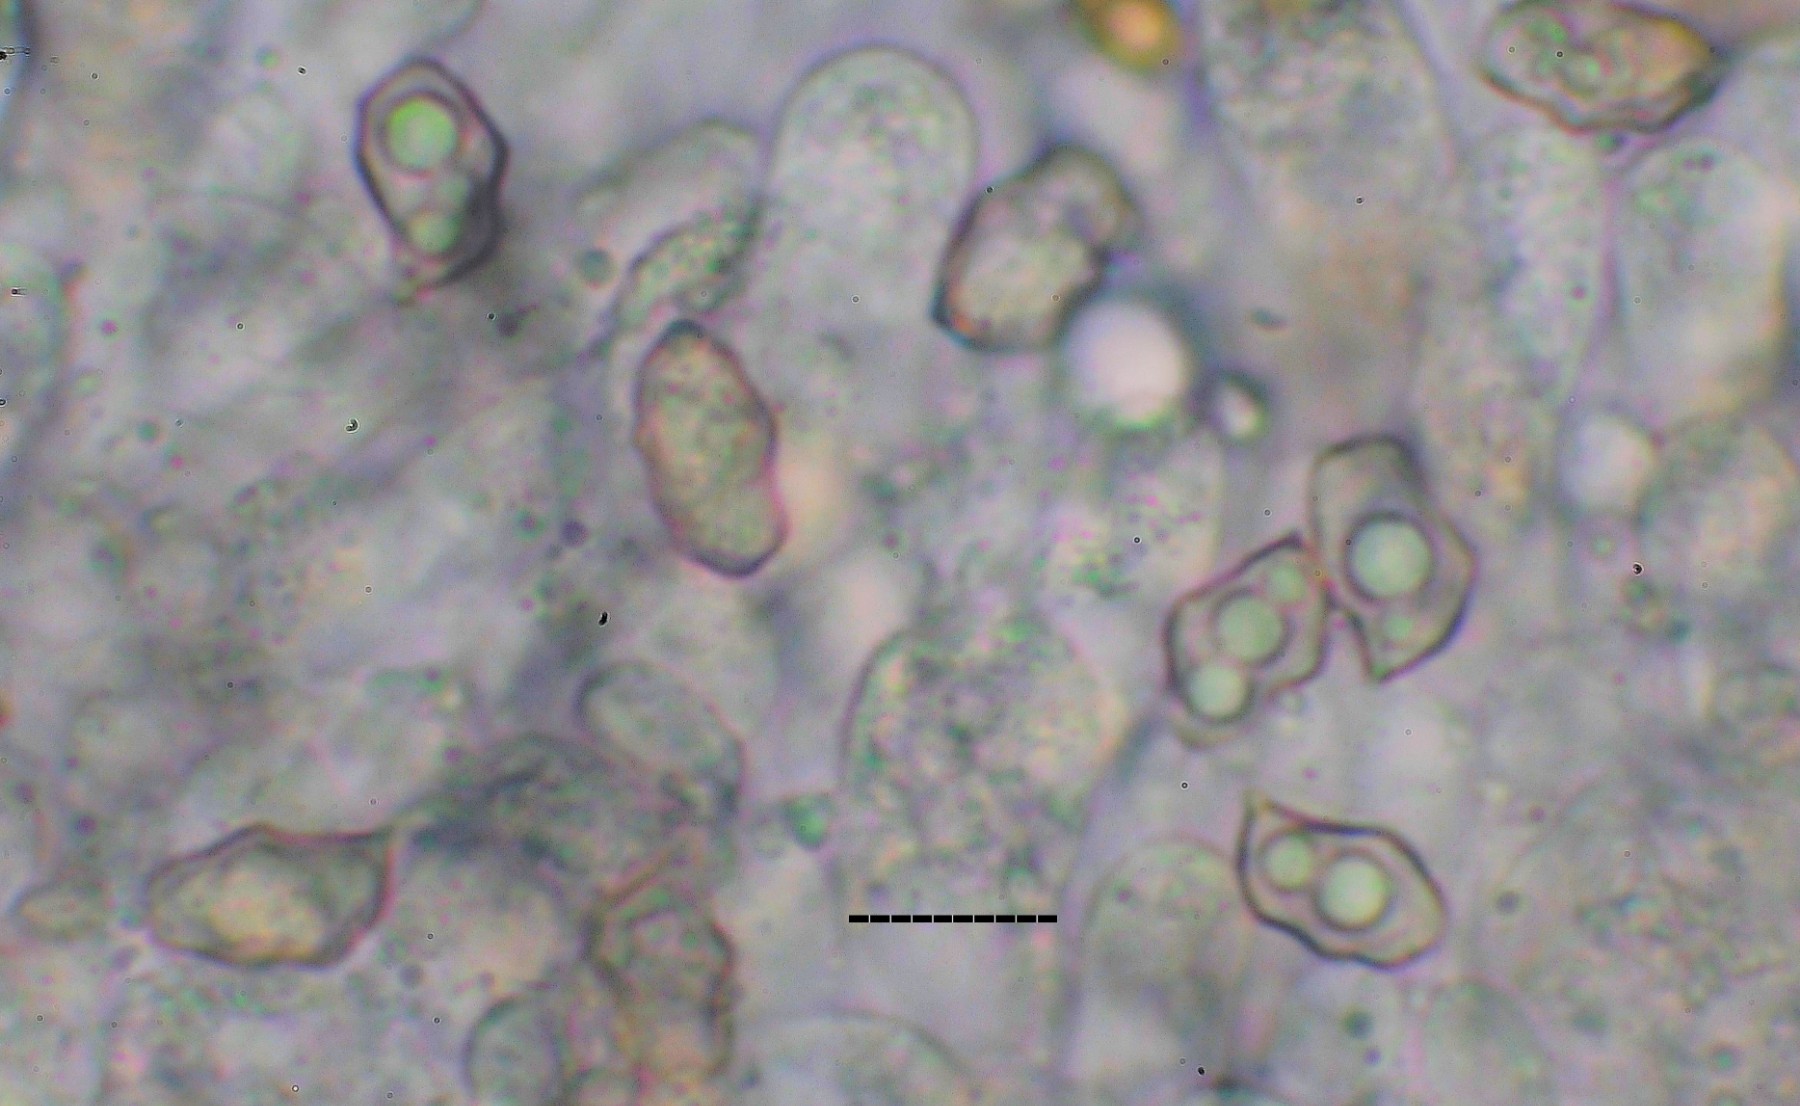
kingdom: Fungi
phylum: Basidiomycota
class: Agaricomycetes
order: Agaricales
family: Entolomataceae
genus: Entoloma
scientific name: Entoloma atrocoeruleum
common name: sortblå rødblad
